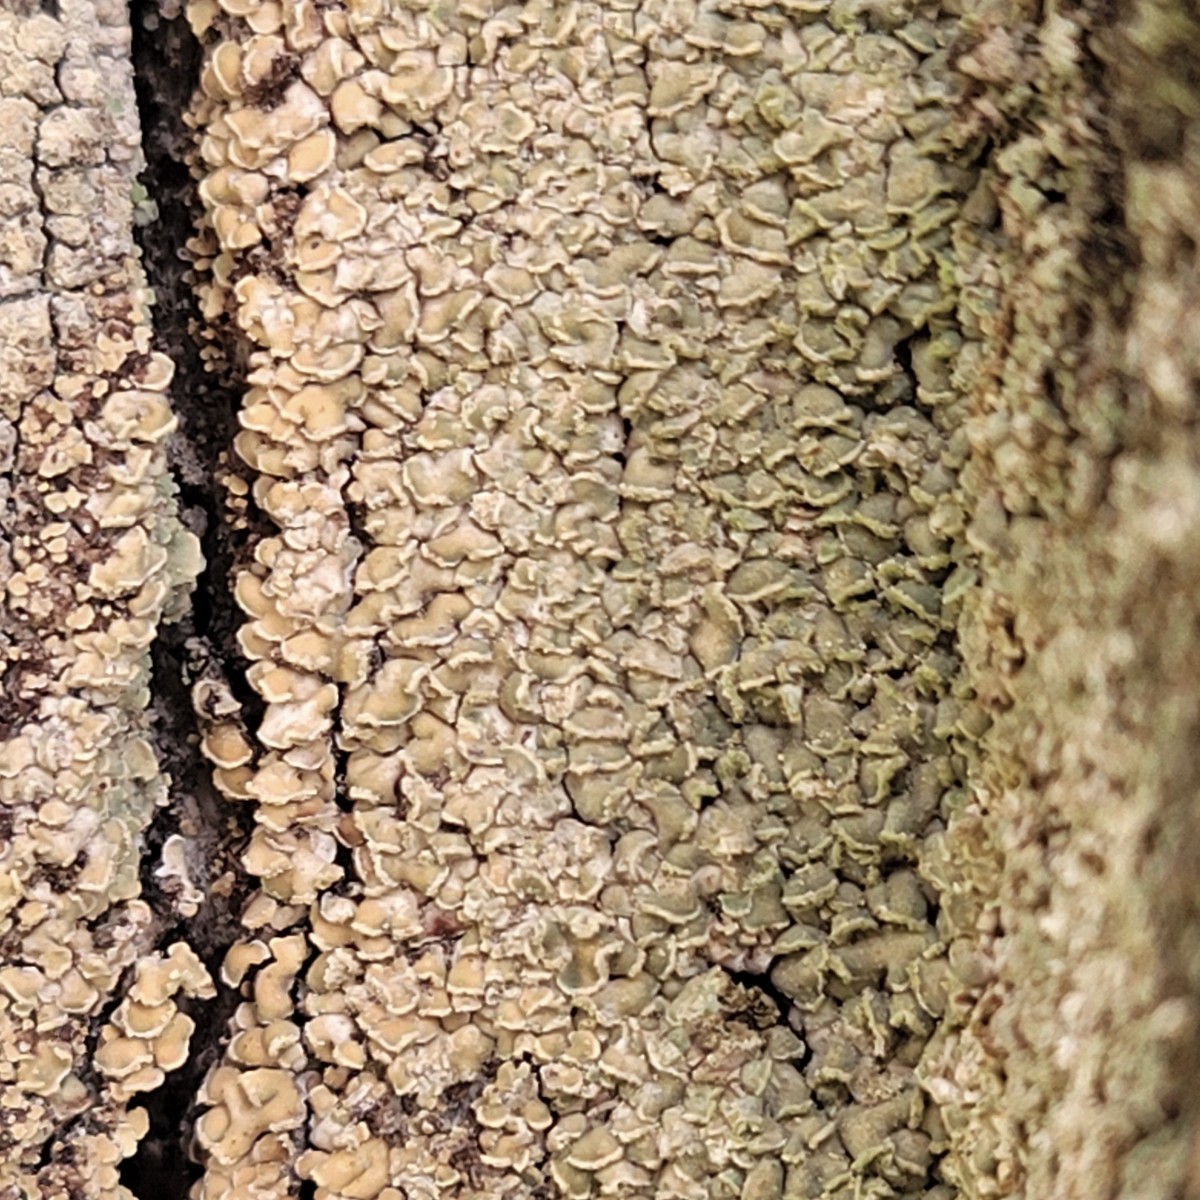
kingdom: Fungi
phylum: Ascomycota
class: Lecanoromycetes
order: Umbilicariales
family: Ophioparmaceae
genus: Hypocenomyce
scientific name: Hypocenomyce scalaris
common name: småskællet muslinglav
